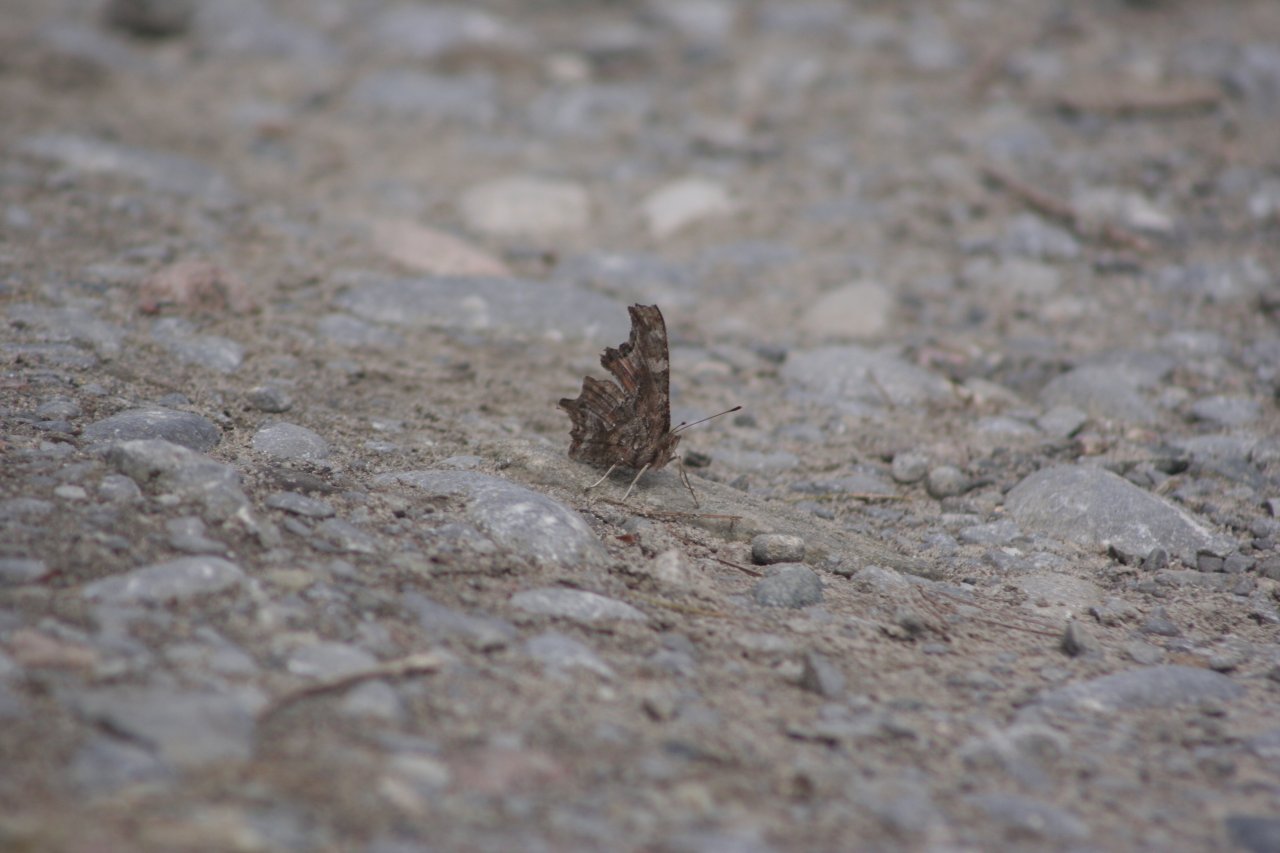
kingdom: Animalia
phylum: Arthropoda
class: Insecta
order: Lepidoptera
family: Nymphalidae
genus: Polygonia
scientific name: Polygonia comma
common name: Eastern Comma
